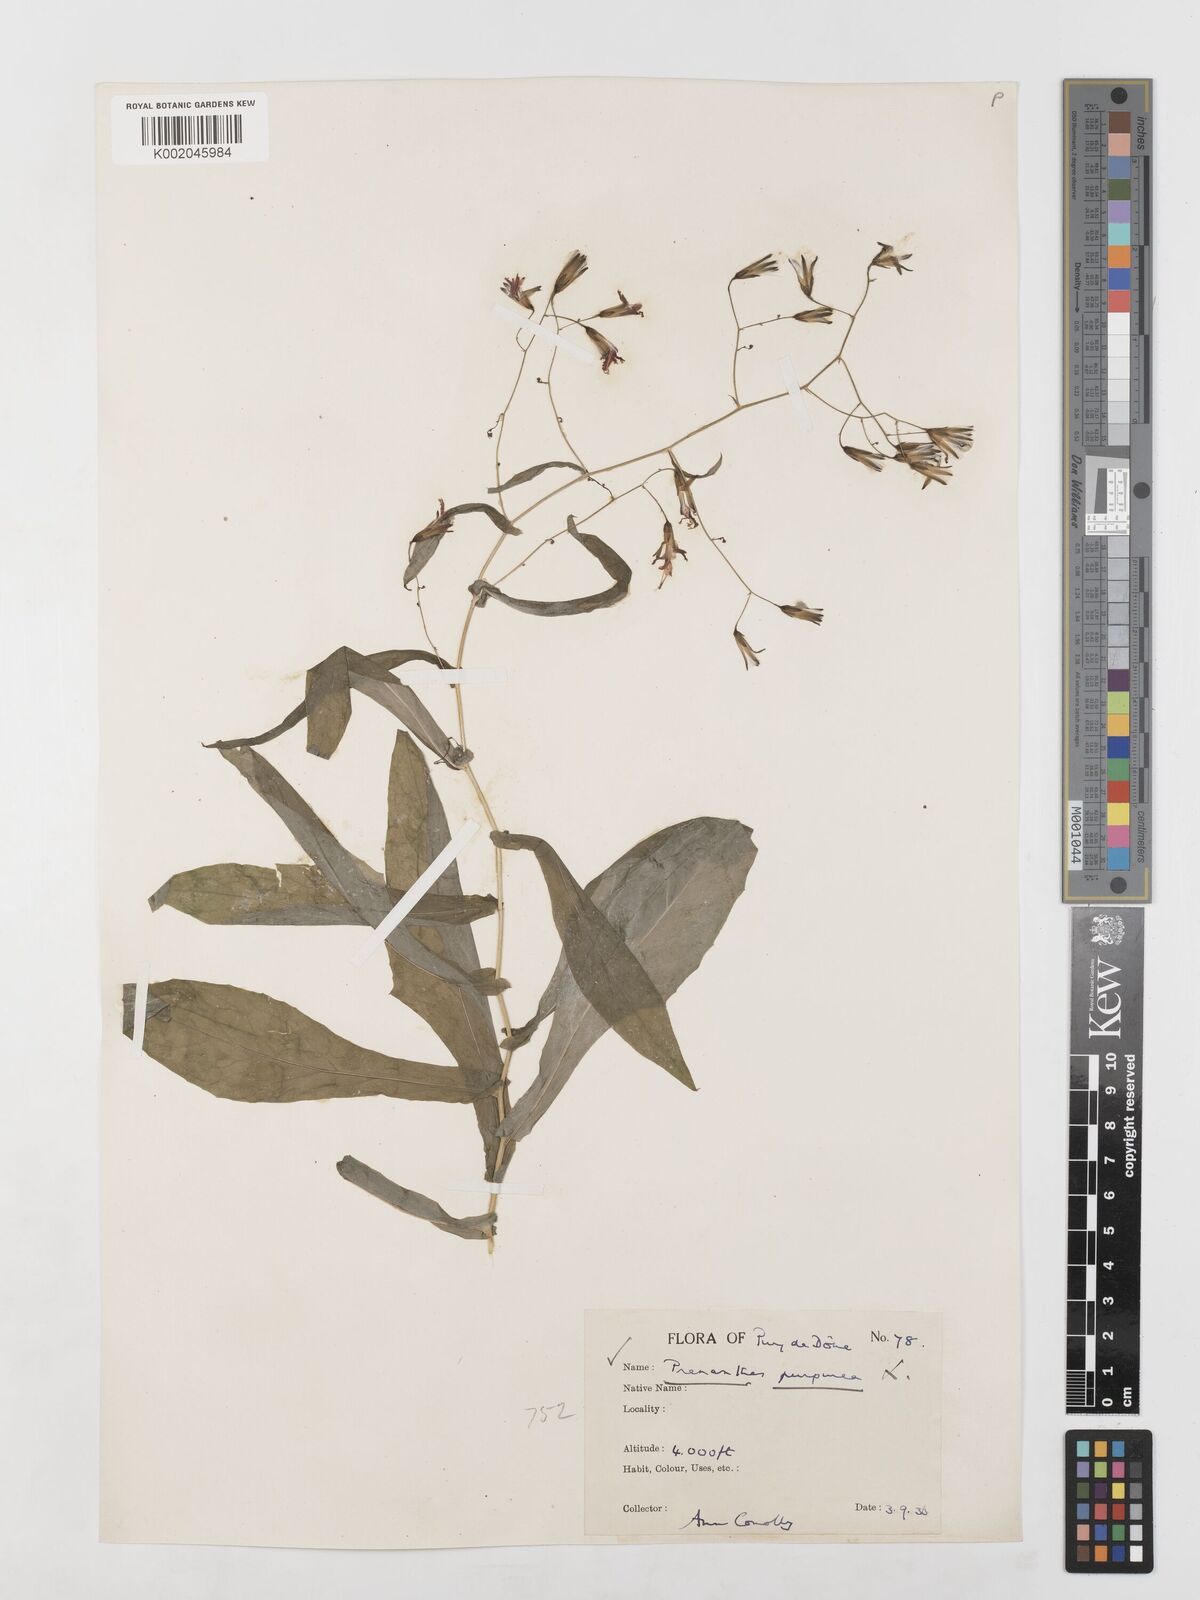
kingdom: Plantae
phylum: Tracheophyta
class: Magnoliopsida
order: Asterales
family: Asteraceae
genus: Prenanthes
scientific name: Prenanthes purpurea
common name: Purple lettuce
